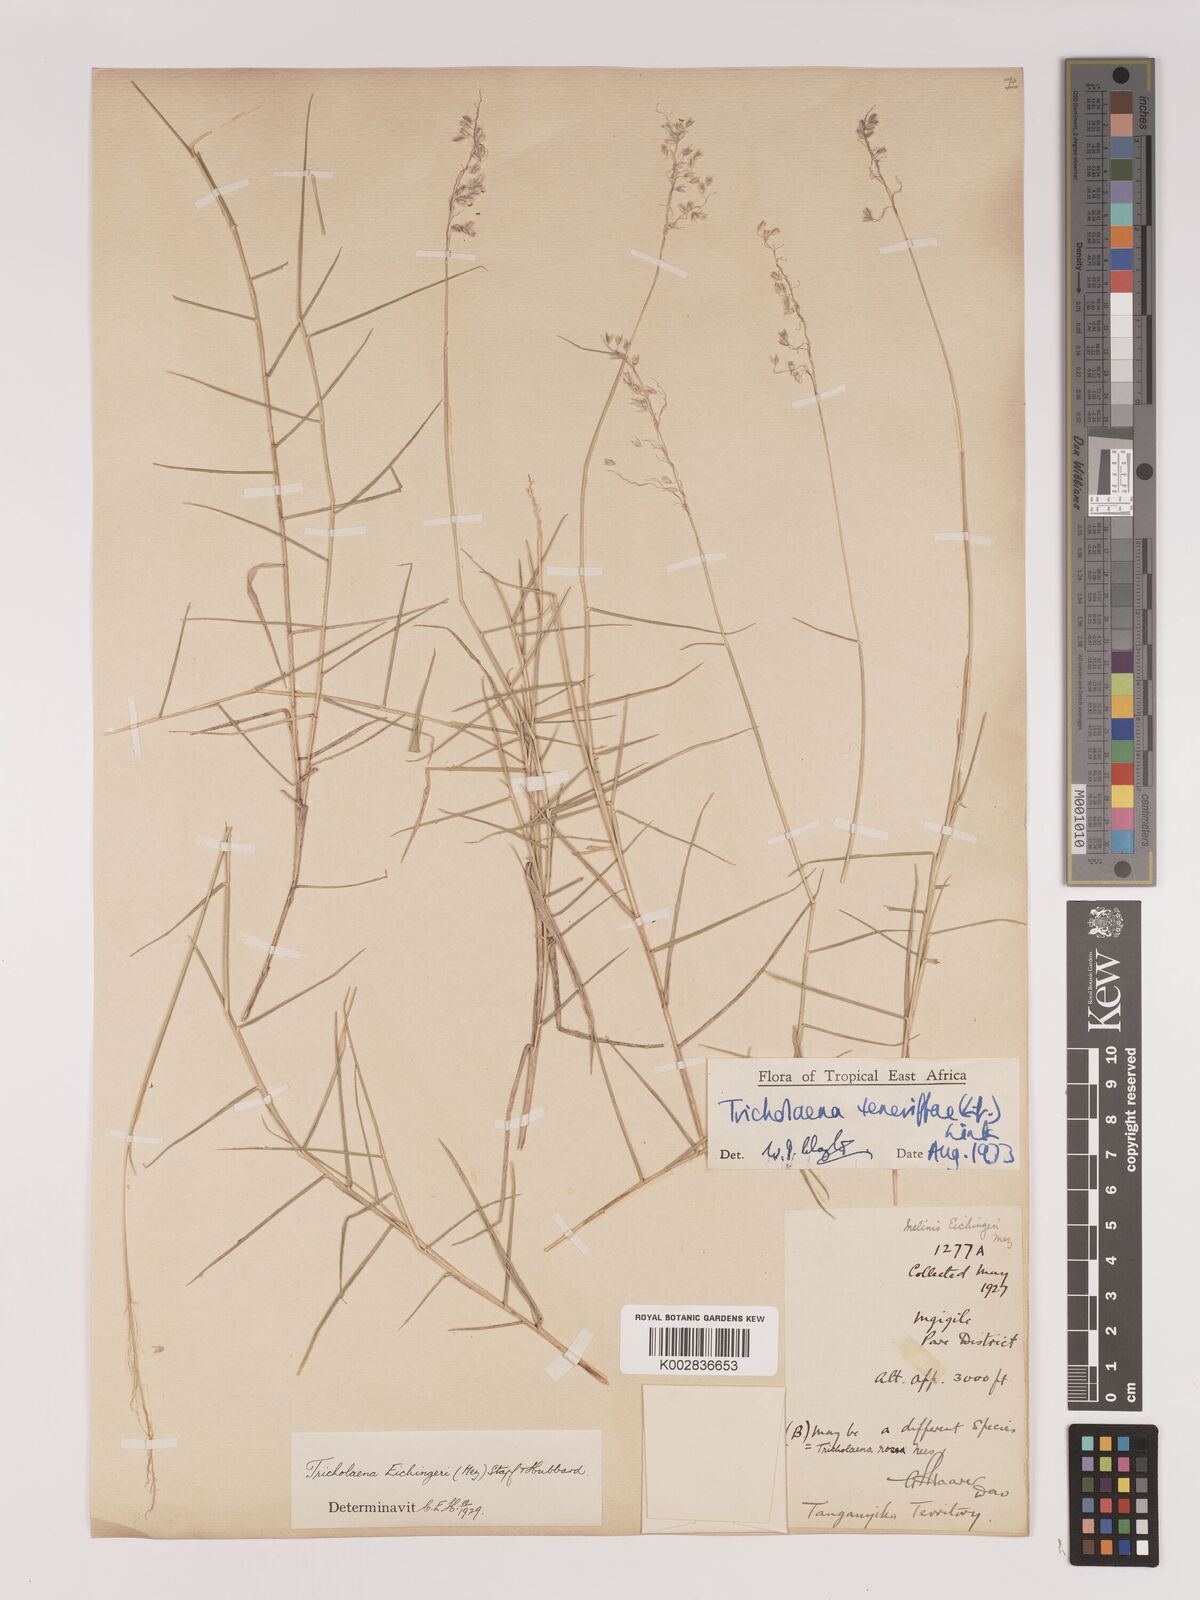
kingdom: Plantae
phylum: Tracheophyta
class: Liliopsida
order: Poales
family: Poaceae
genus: Tricholaena
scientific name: Tricholaena teneriffae
